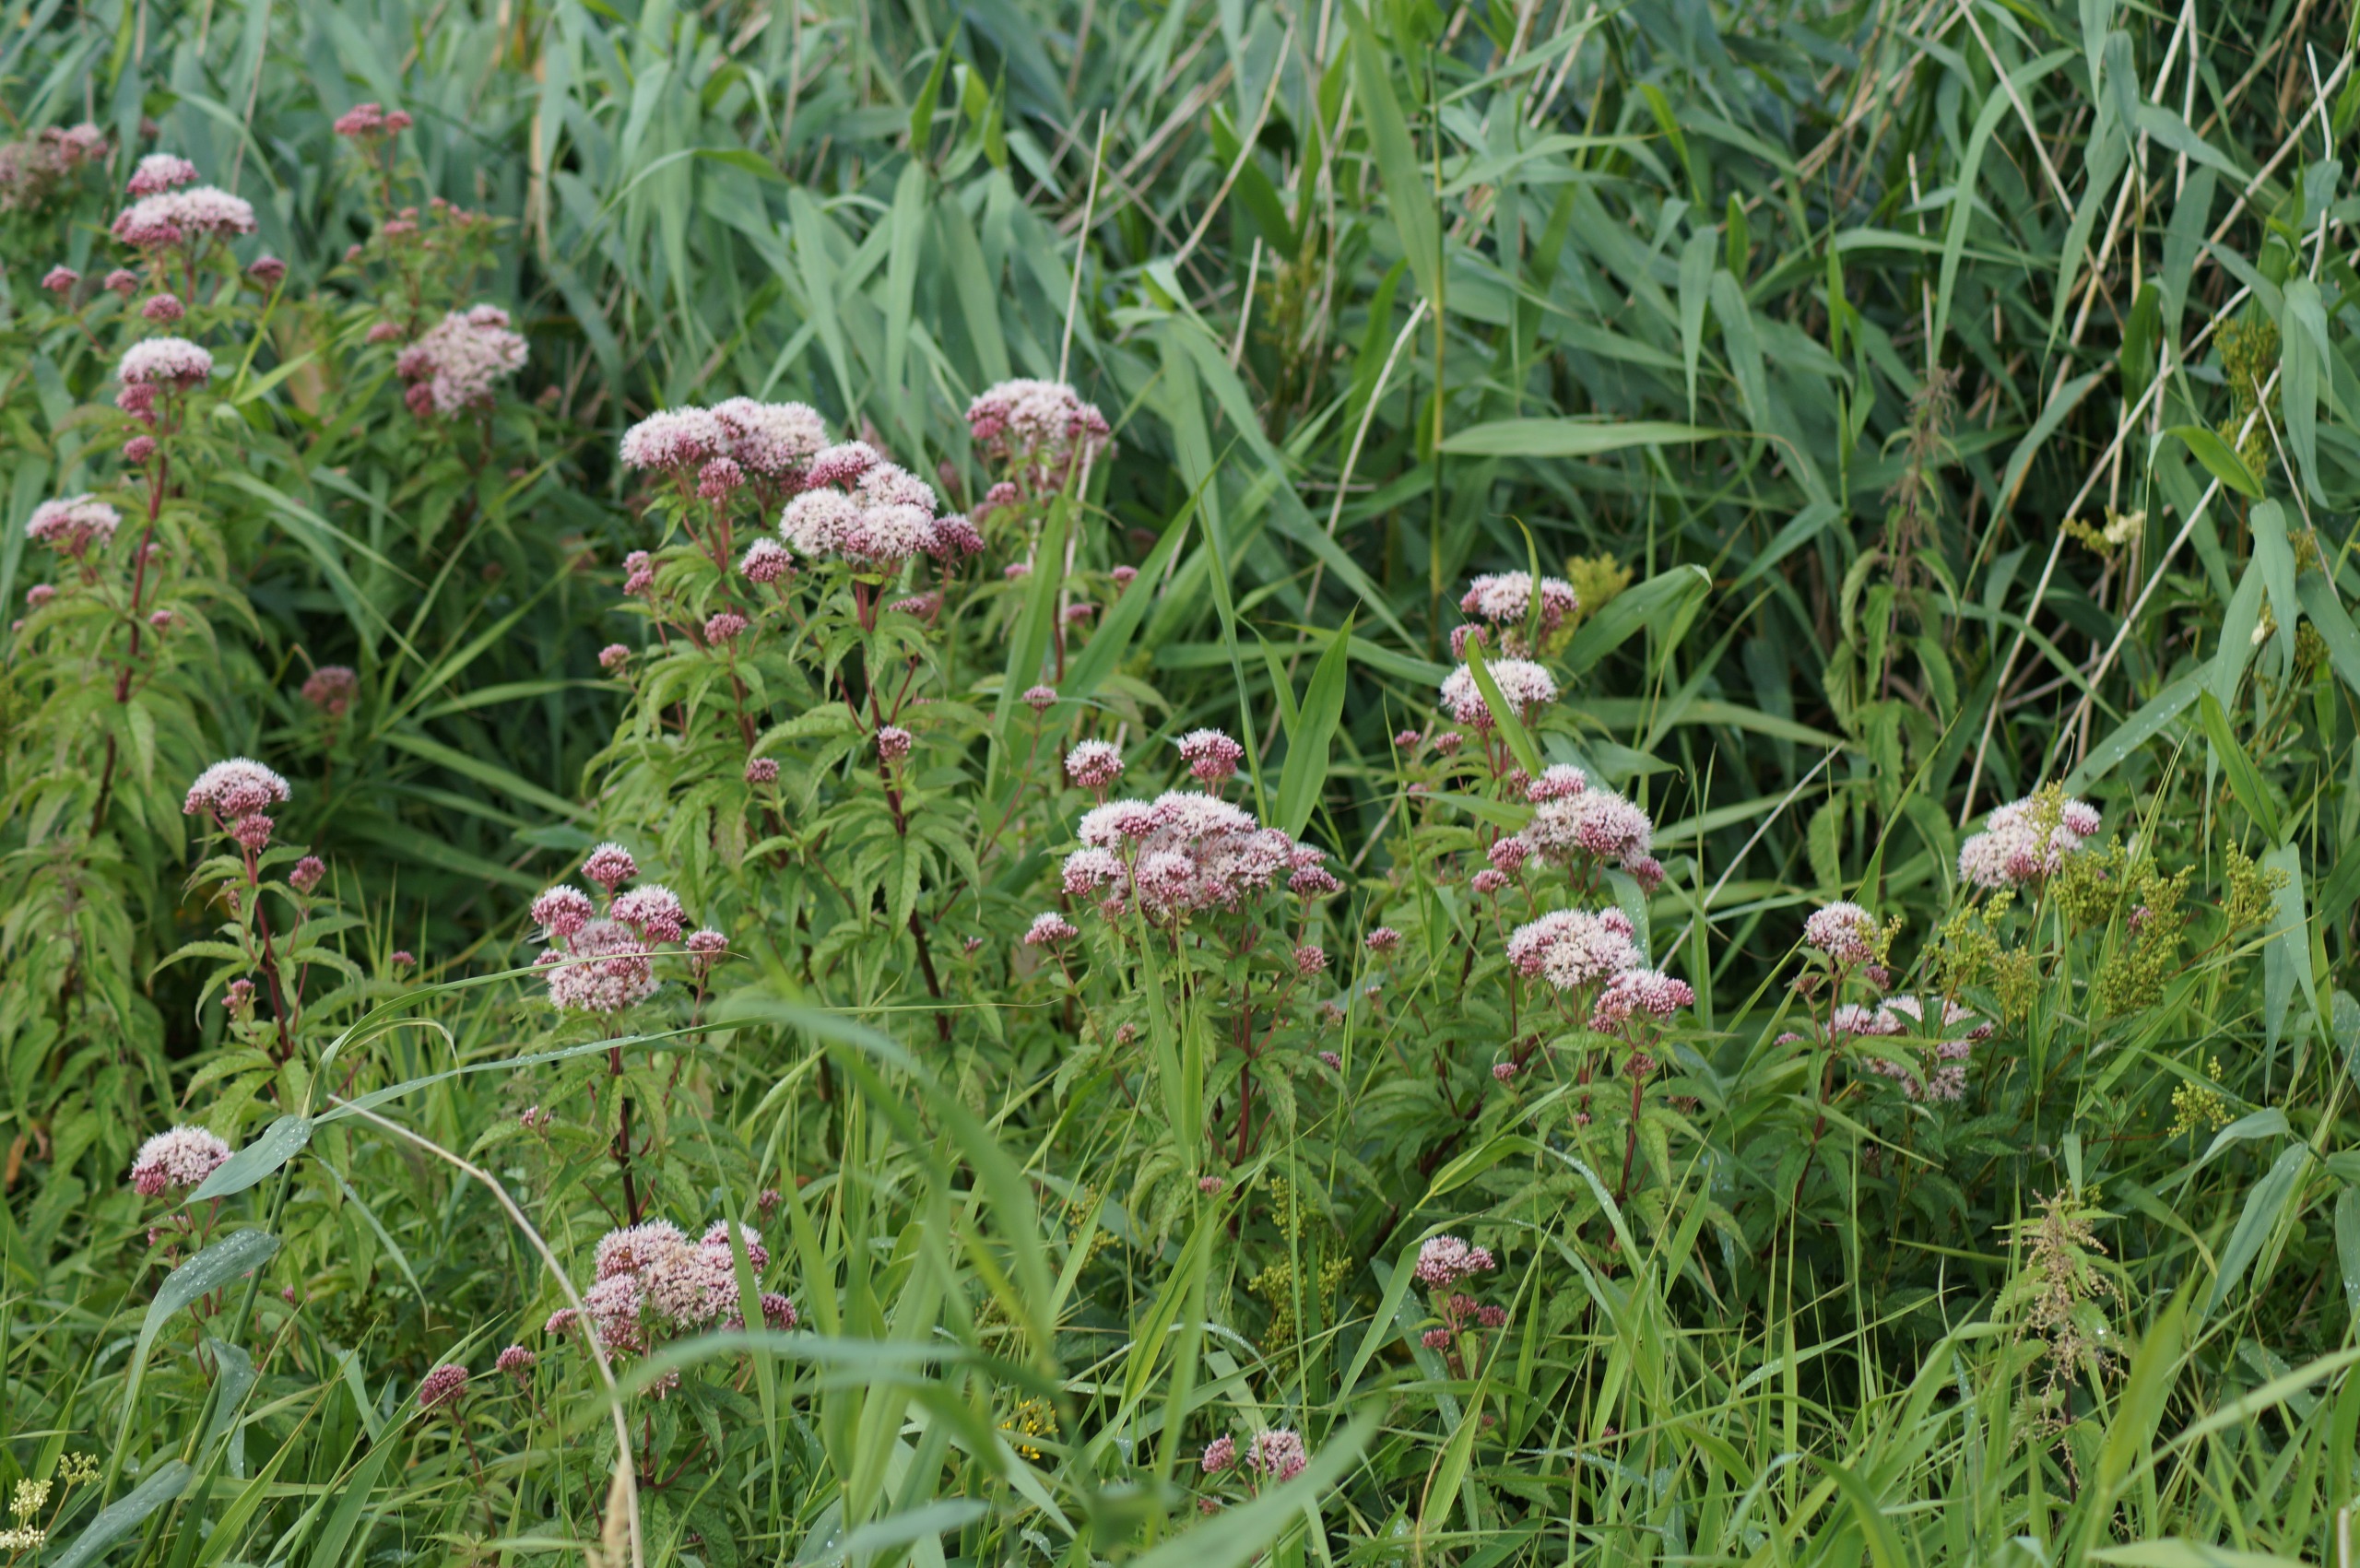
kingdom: Plantae
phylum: Tracheophyta
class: Magnoliopsida
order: Asterales
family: Asteraceae
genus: Eupatorium
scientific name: Eupatorium cannabinum
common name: Hjortetrøst
